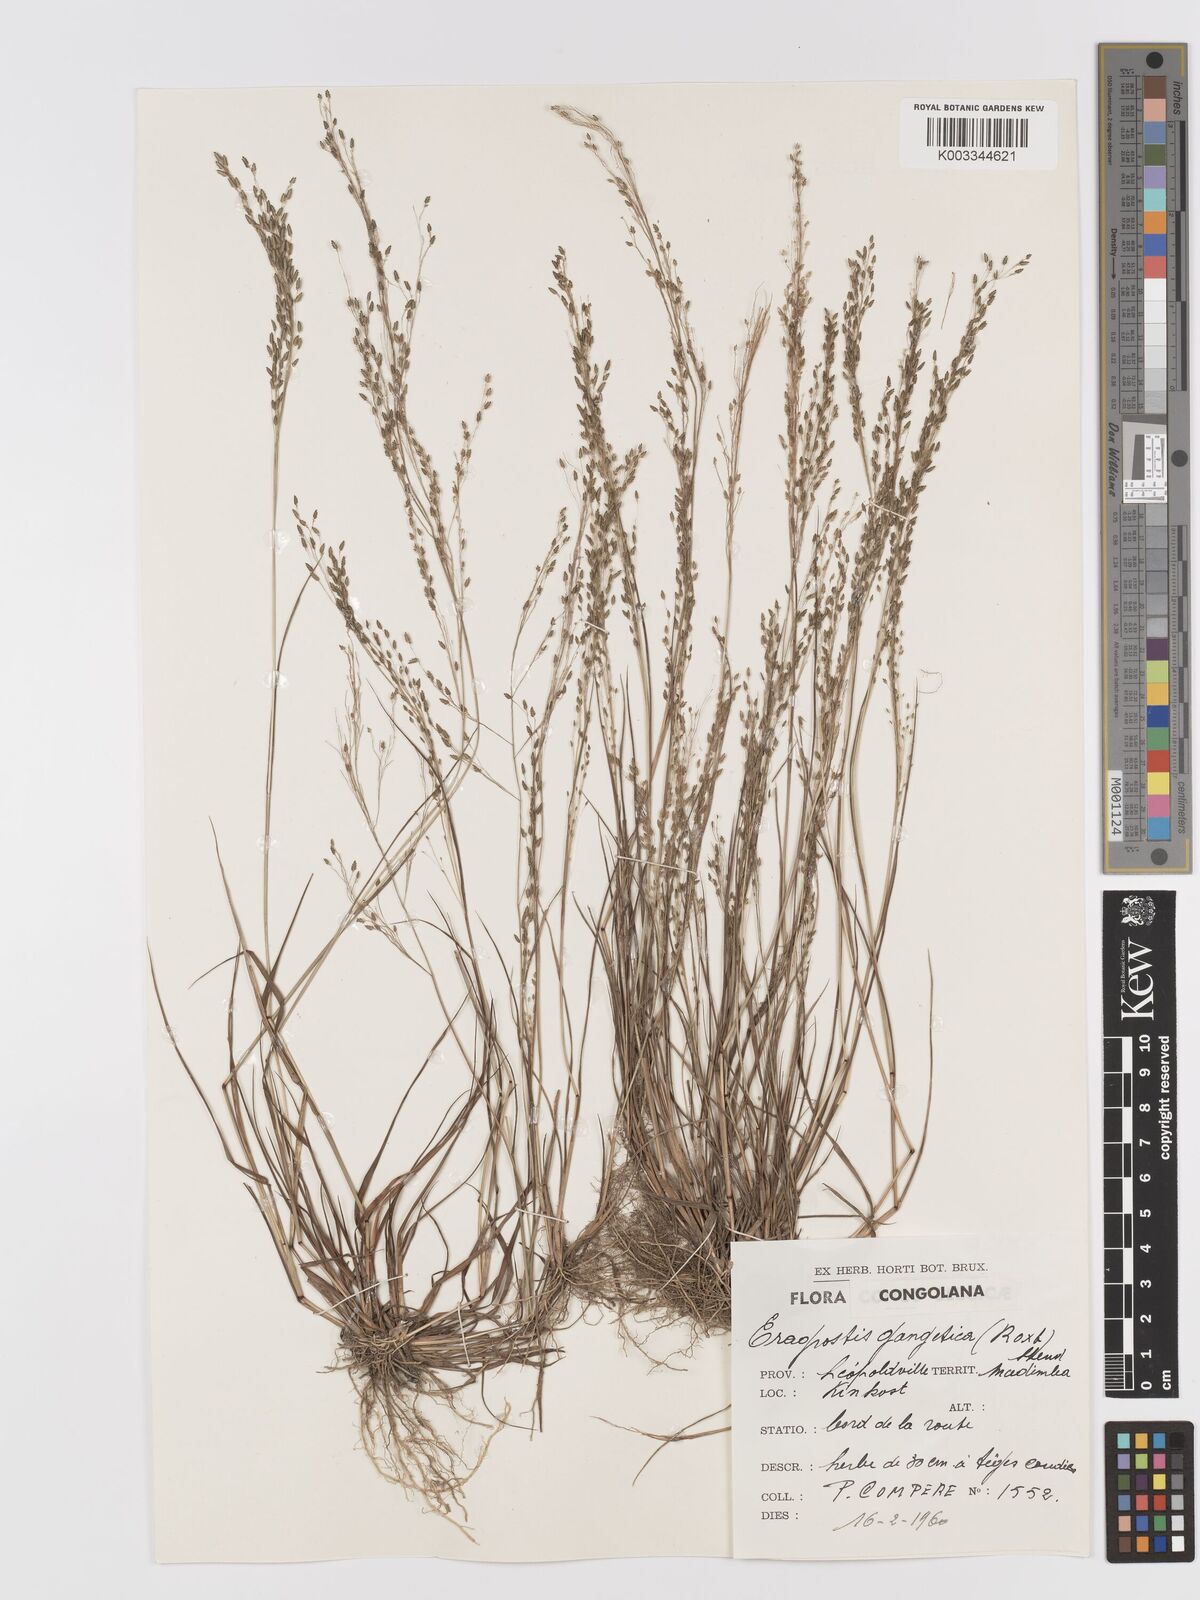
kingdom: Plantae
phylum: Tracheophyta
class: Liliopsida
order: Poales
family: Poaceae
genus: Eragrostis
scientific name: Eragrostis gangetica
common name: Slimflower lovegrass
